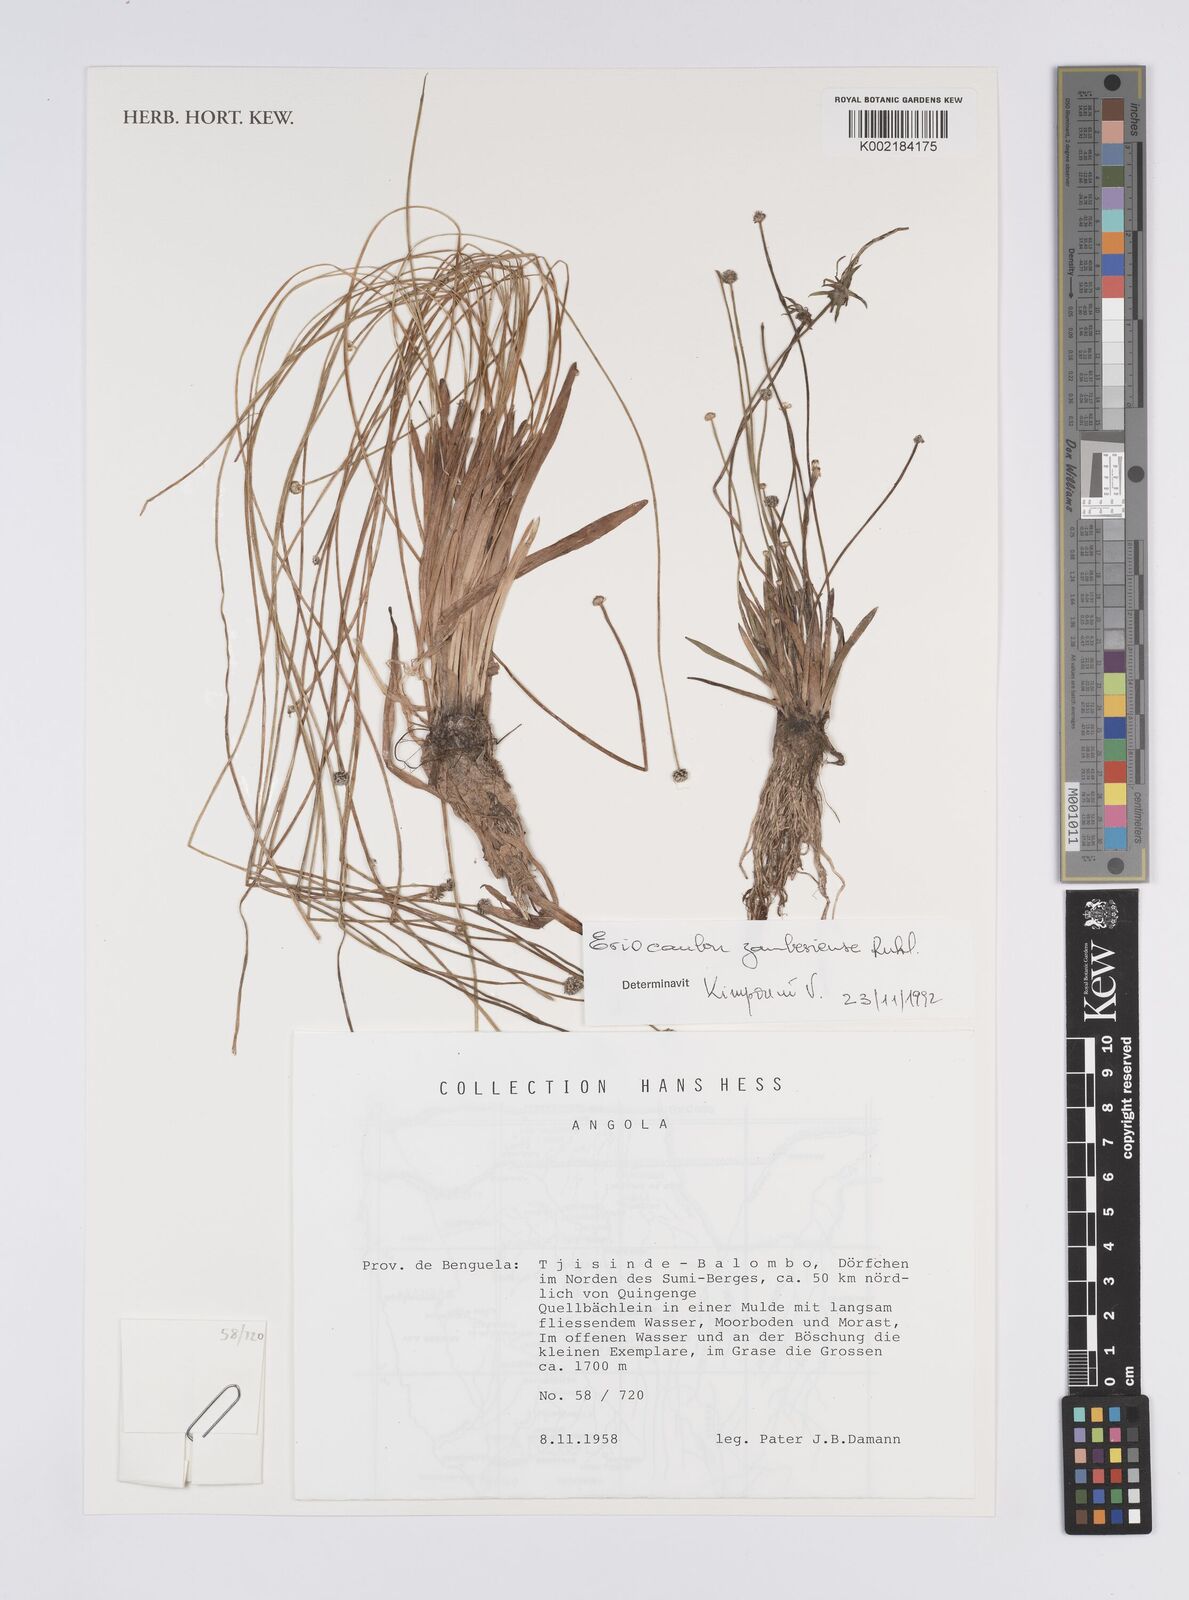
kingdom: Plantae
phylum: Tracheophyta
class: Liliopsida
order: Poales
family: Eriocaulaceae
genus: Eriocaulon
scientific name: Eriocaulon zambesiense
